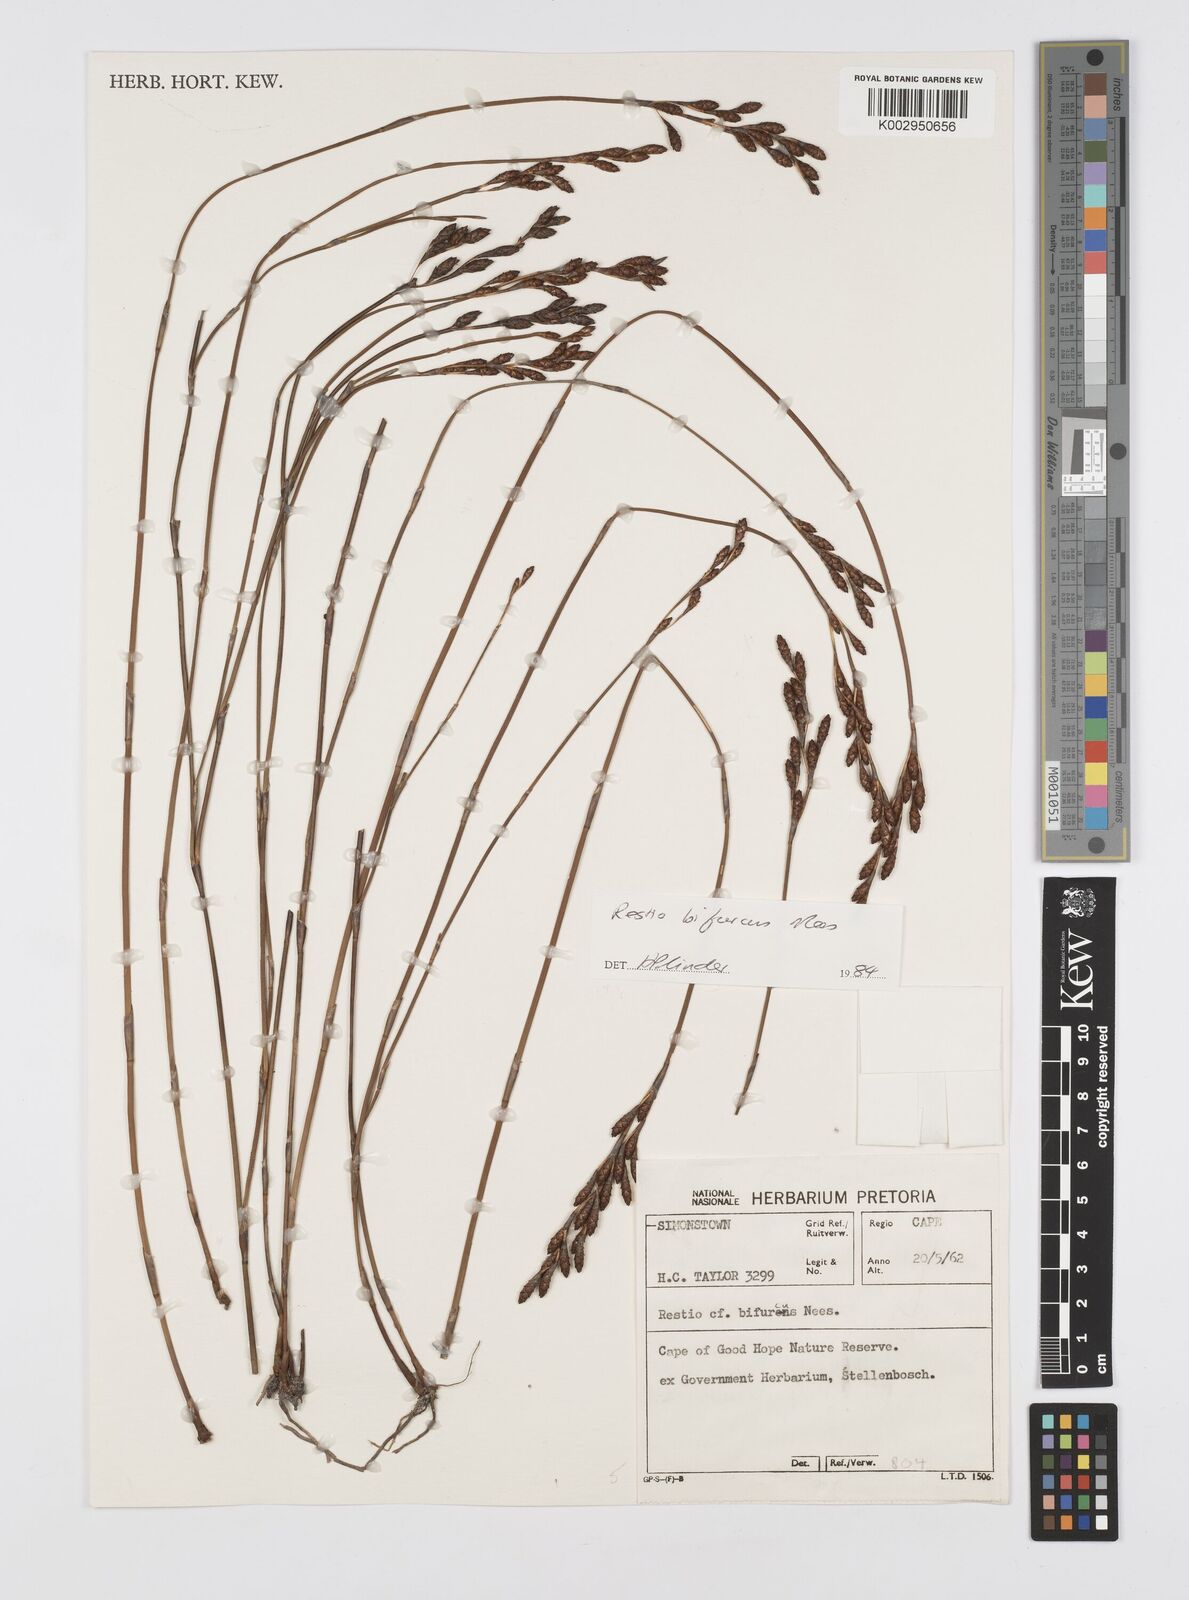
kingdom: Plantae
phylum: Tracheophyta
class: Liliopsida
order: Poales
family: Restionaceae
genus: Restio
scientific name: Restio bifurcus
